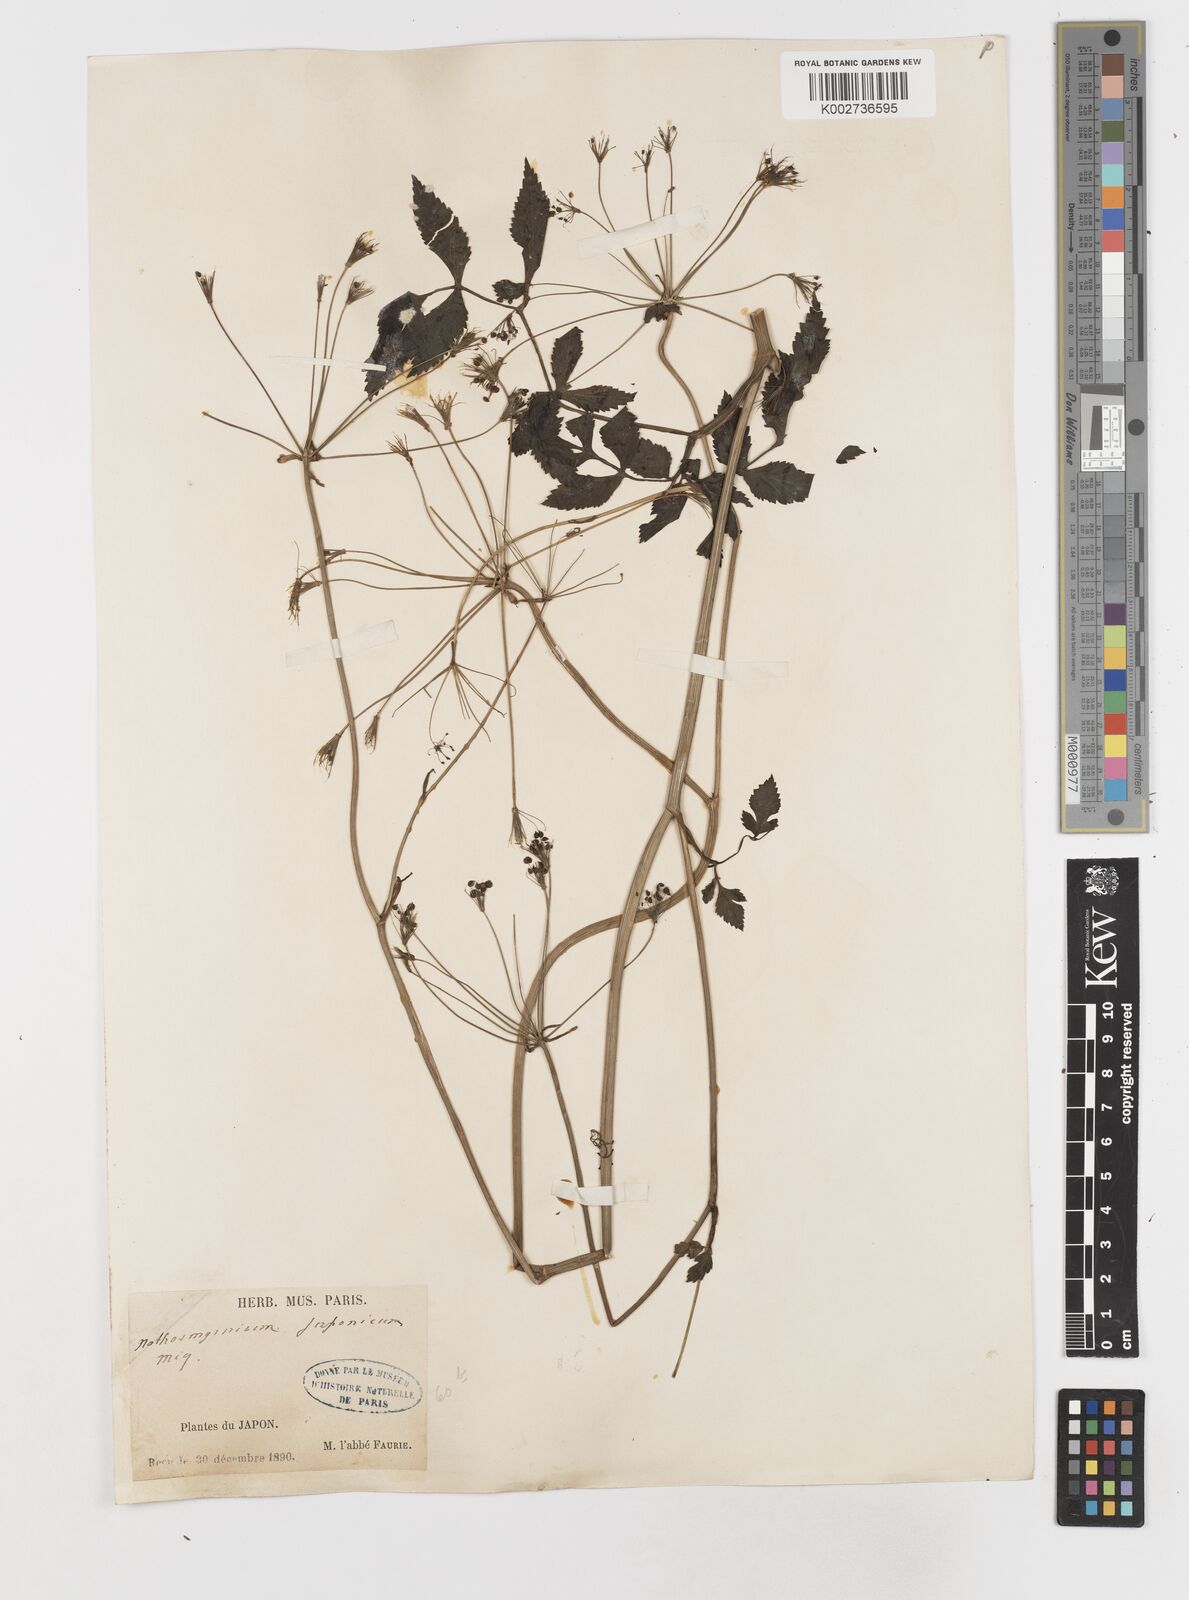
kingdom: Plantae
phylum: Tracheophyta
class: Magnoliopsida
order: Apiales
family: Apiaceae
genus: Nothosmyrnium
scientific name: Nothosmyrnium japonicum
